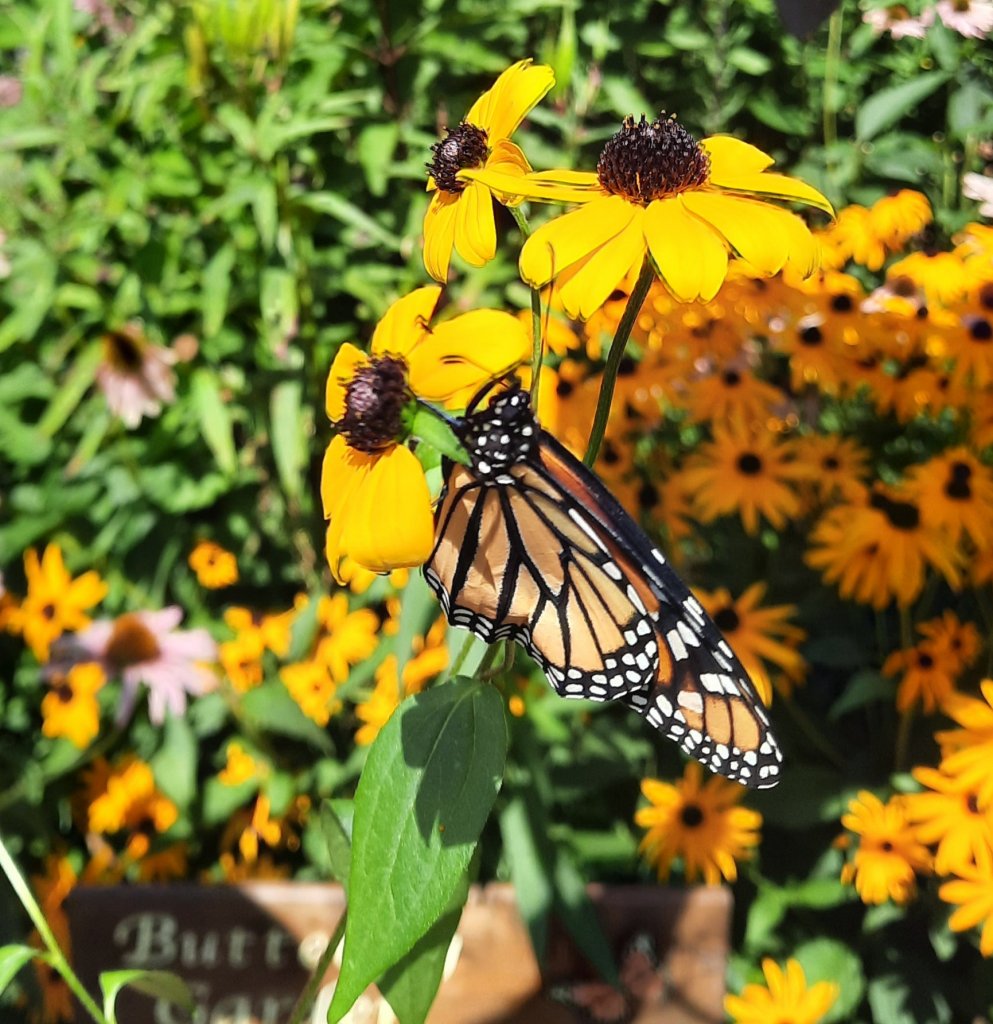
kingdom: Animalia
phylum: Arthropoda
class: Insecta
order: Lepidoptera
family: Nymphalidae
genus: Danaus
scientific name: Danaus plexippus
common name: Monarch
